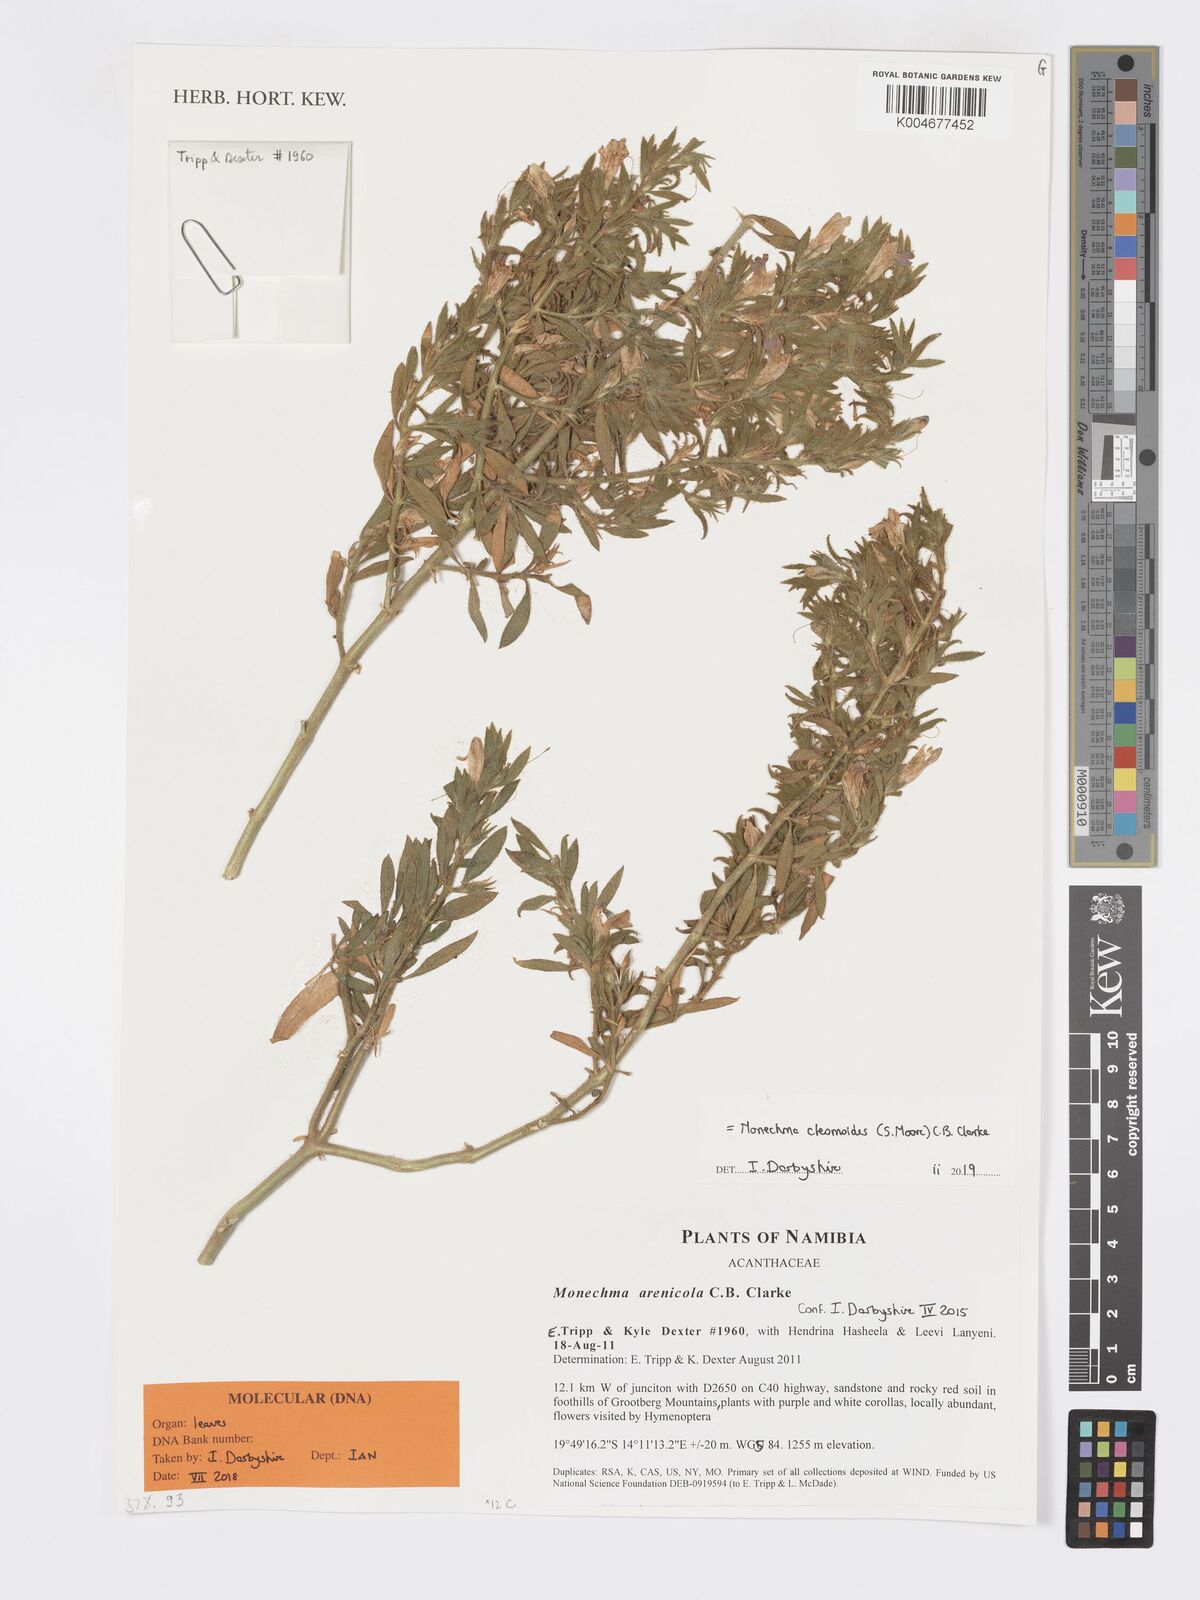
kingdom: Plantae
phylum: Tracheophyta
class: Magnoliopsida
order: Lamiales
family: Acanthaceae
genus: Pogonospermum
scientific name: Pogonospermum
